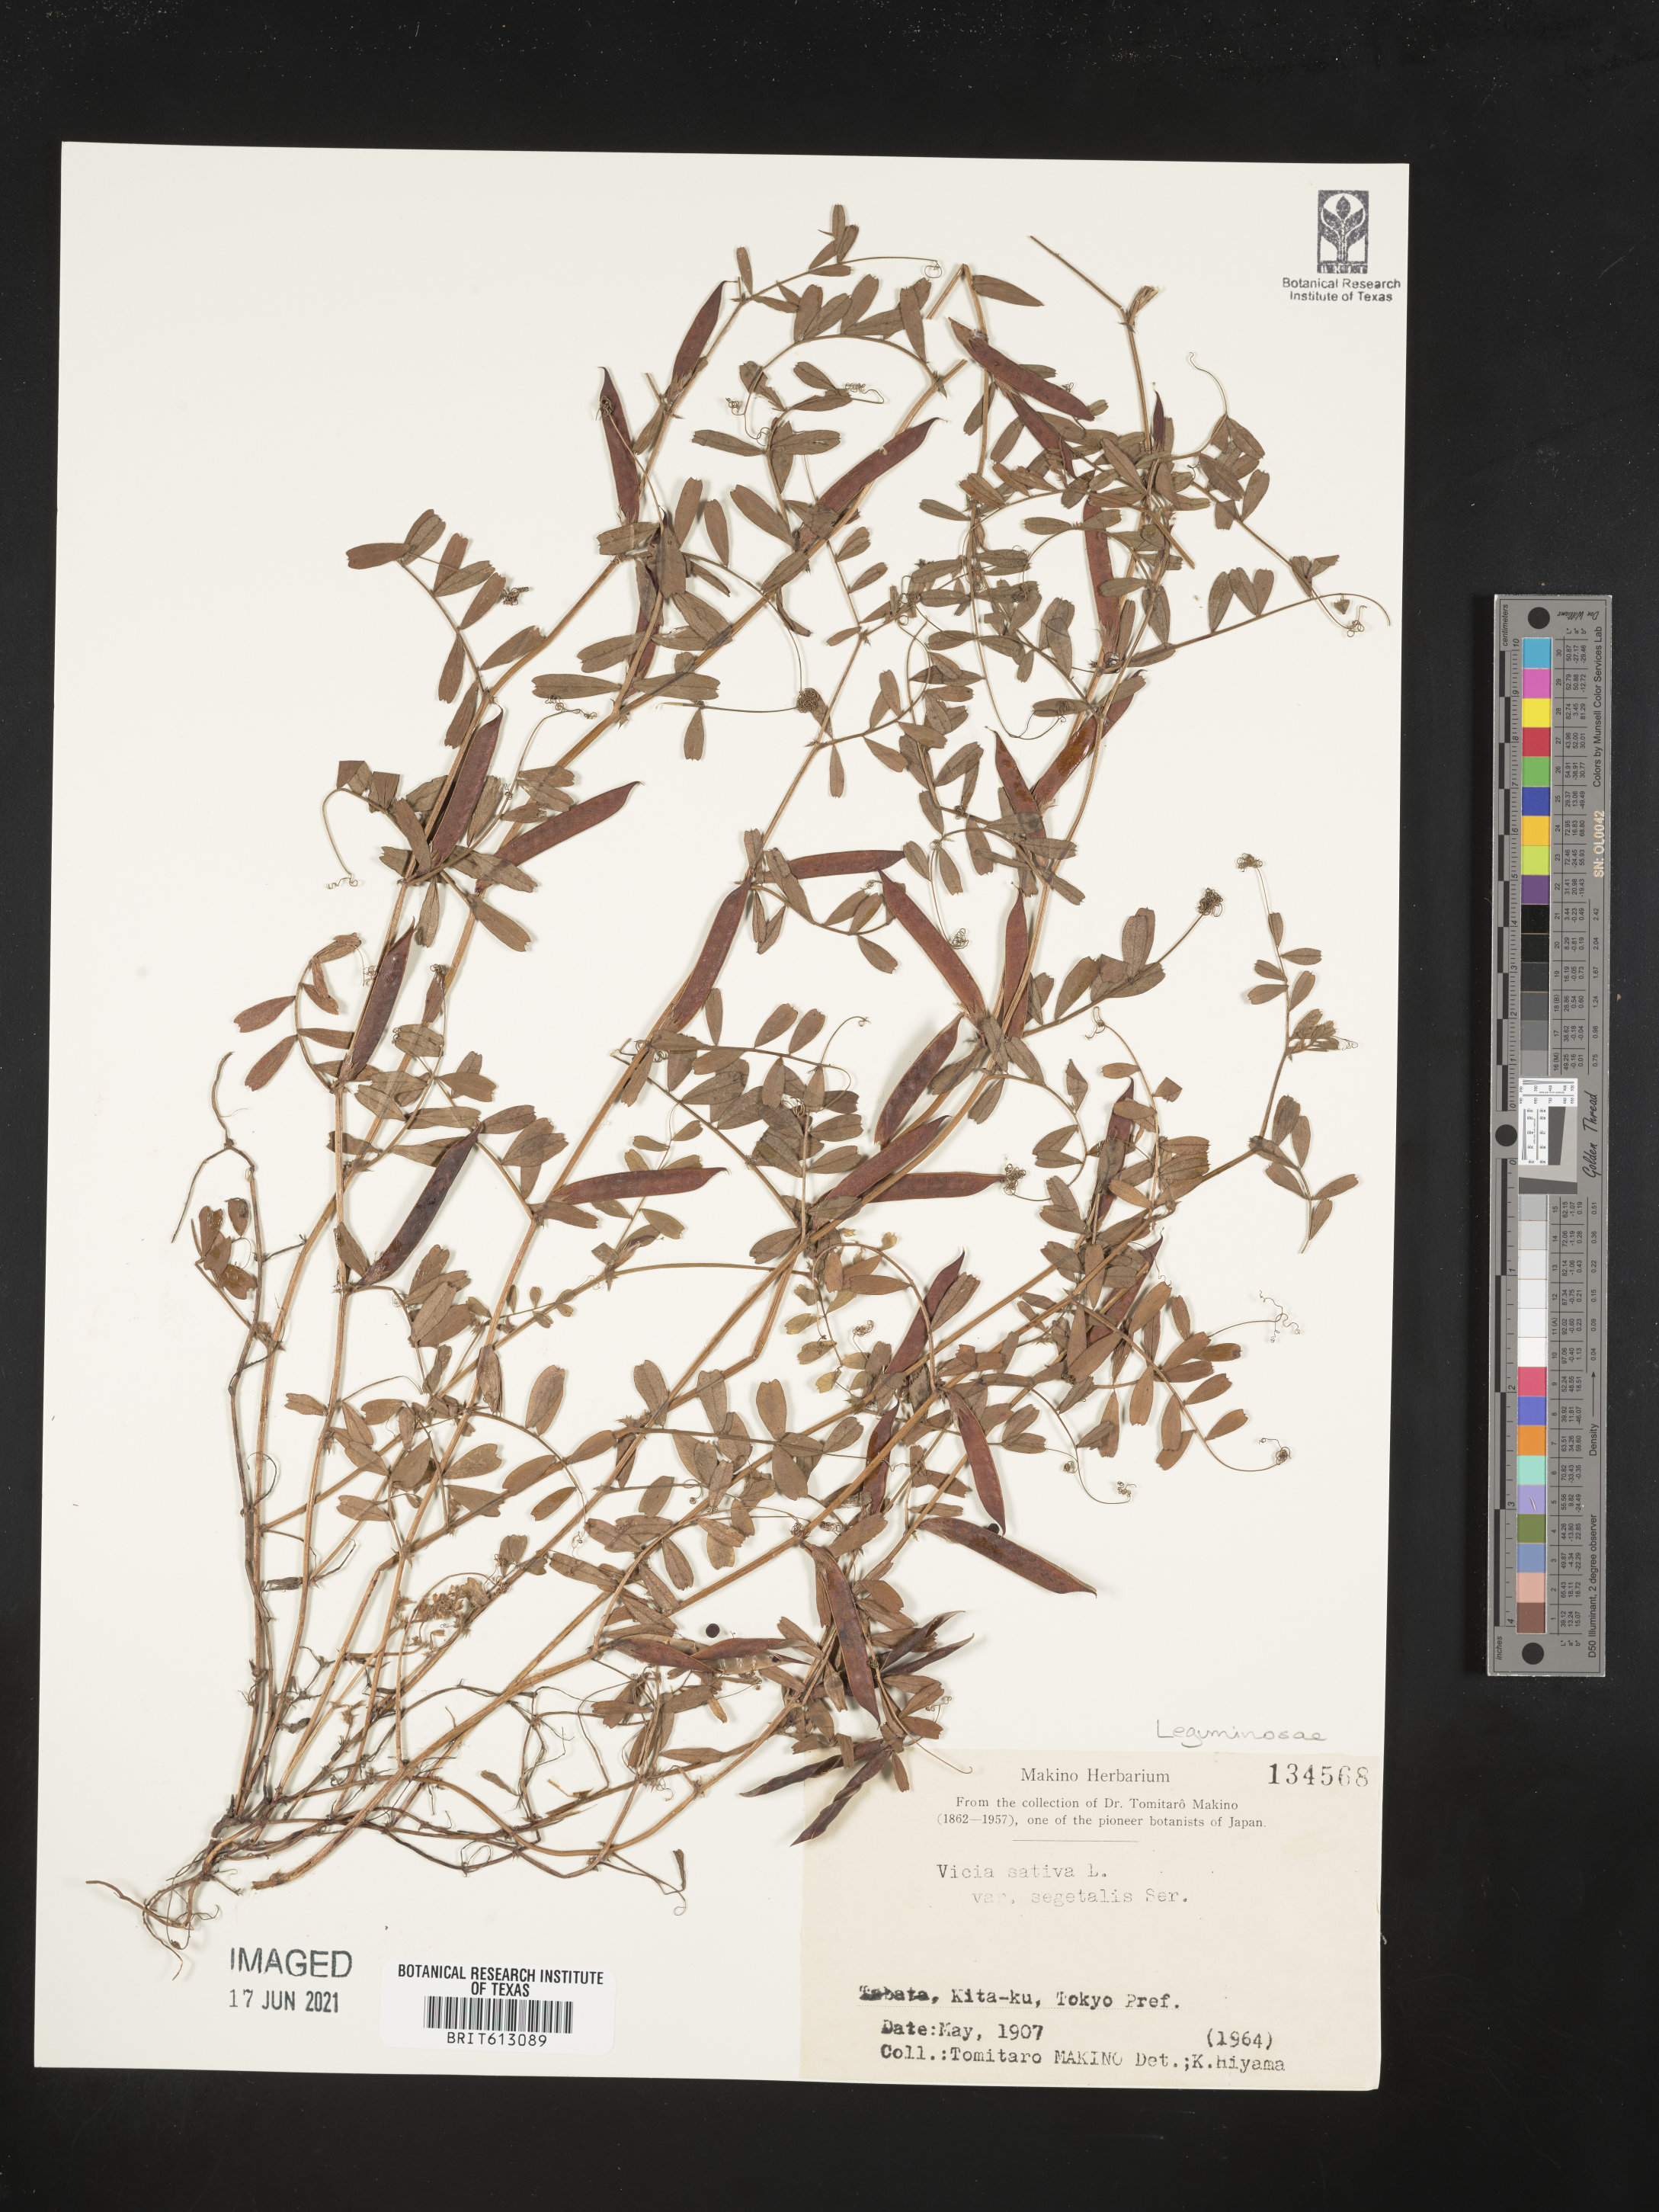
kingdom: Plantae
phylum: Tracheophyta
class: Magnoliopsida
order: Fabales
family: Fabaceae
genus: Vicia
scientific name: Vicia sativa
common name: Garden vetch
